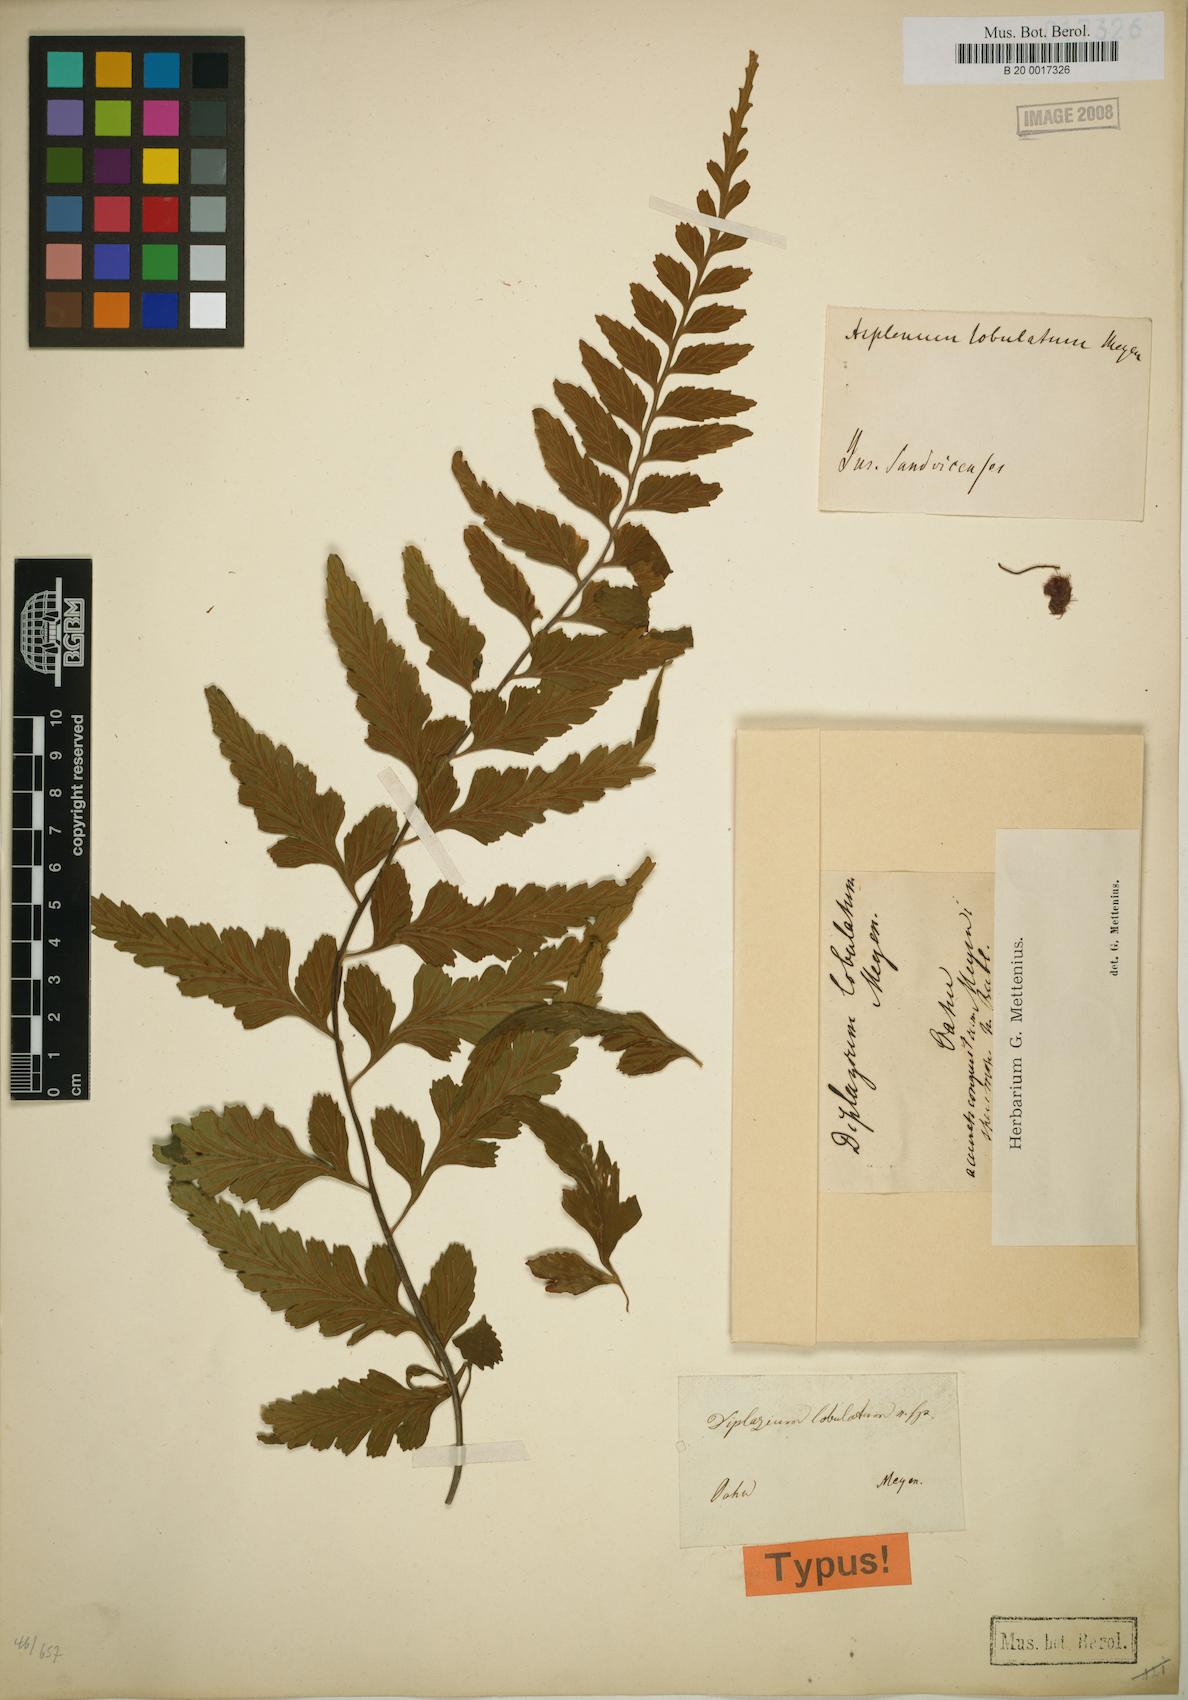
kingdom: Plantae
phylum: Tracheophyta
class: Polypodiopsida
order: Polypodiales
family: Athyriaceae
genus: Diplazium
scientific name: Diplazium
